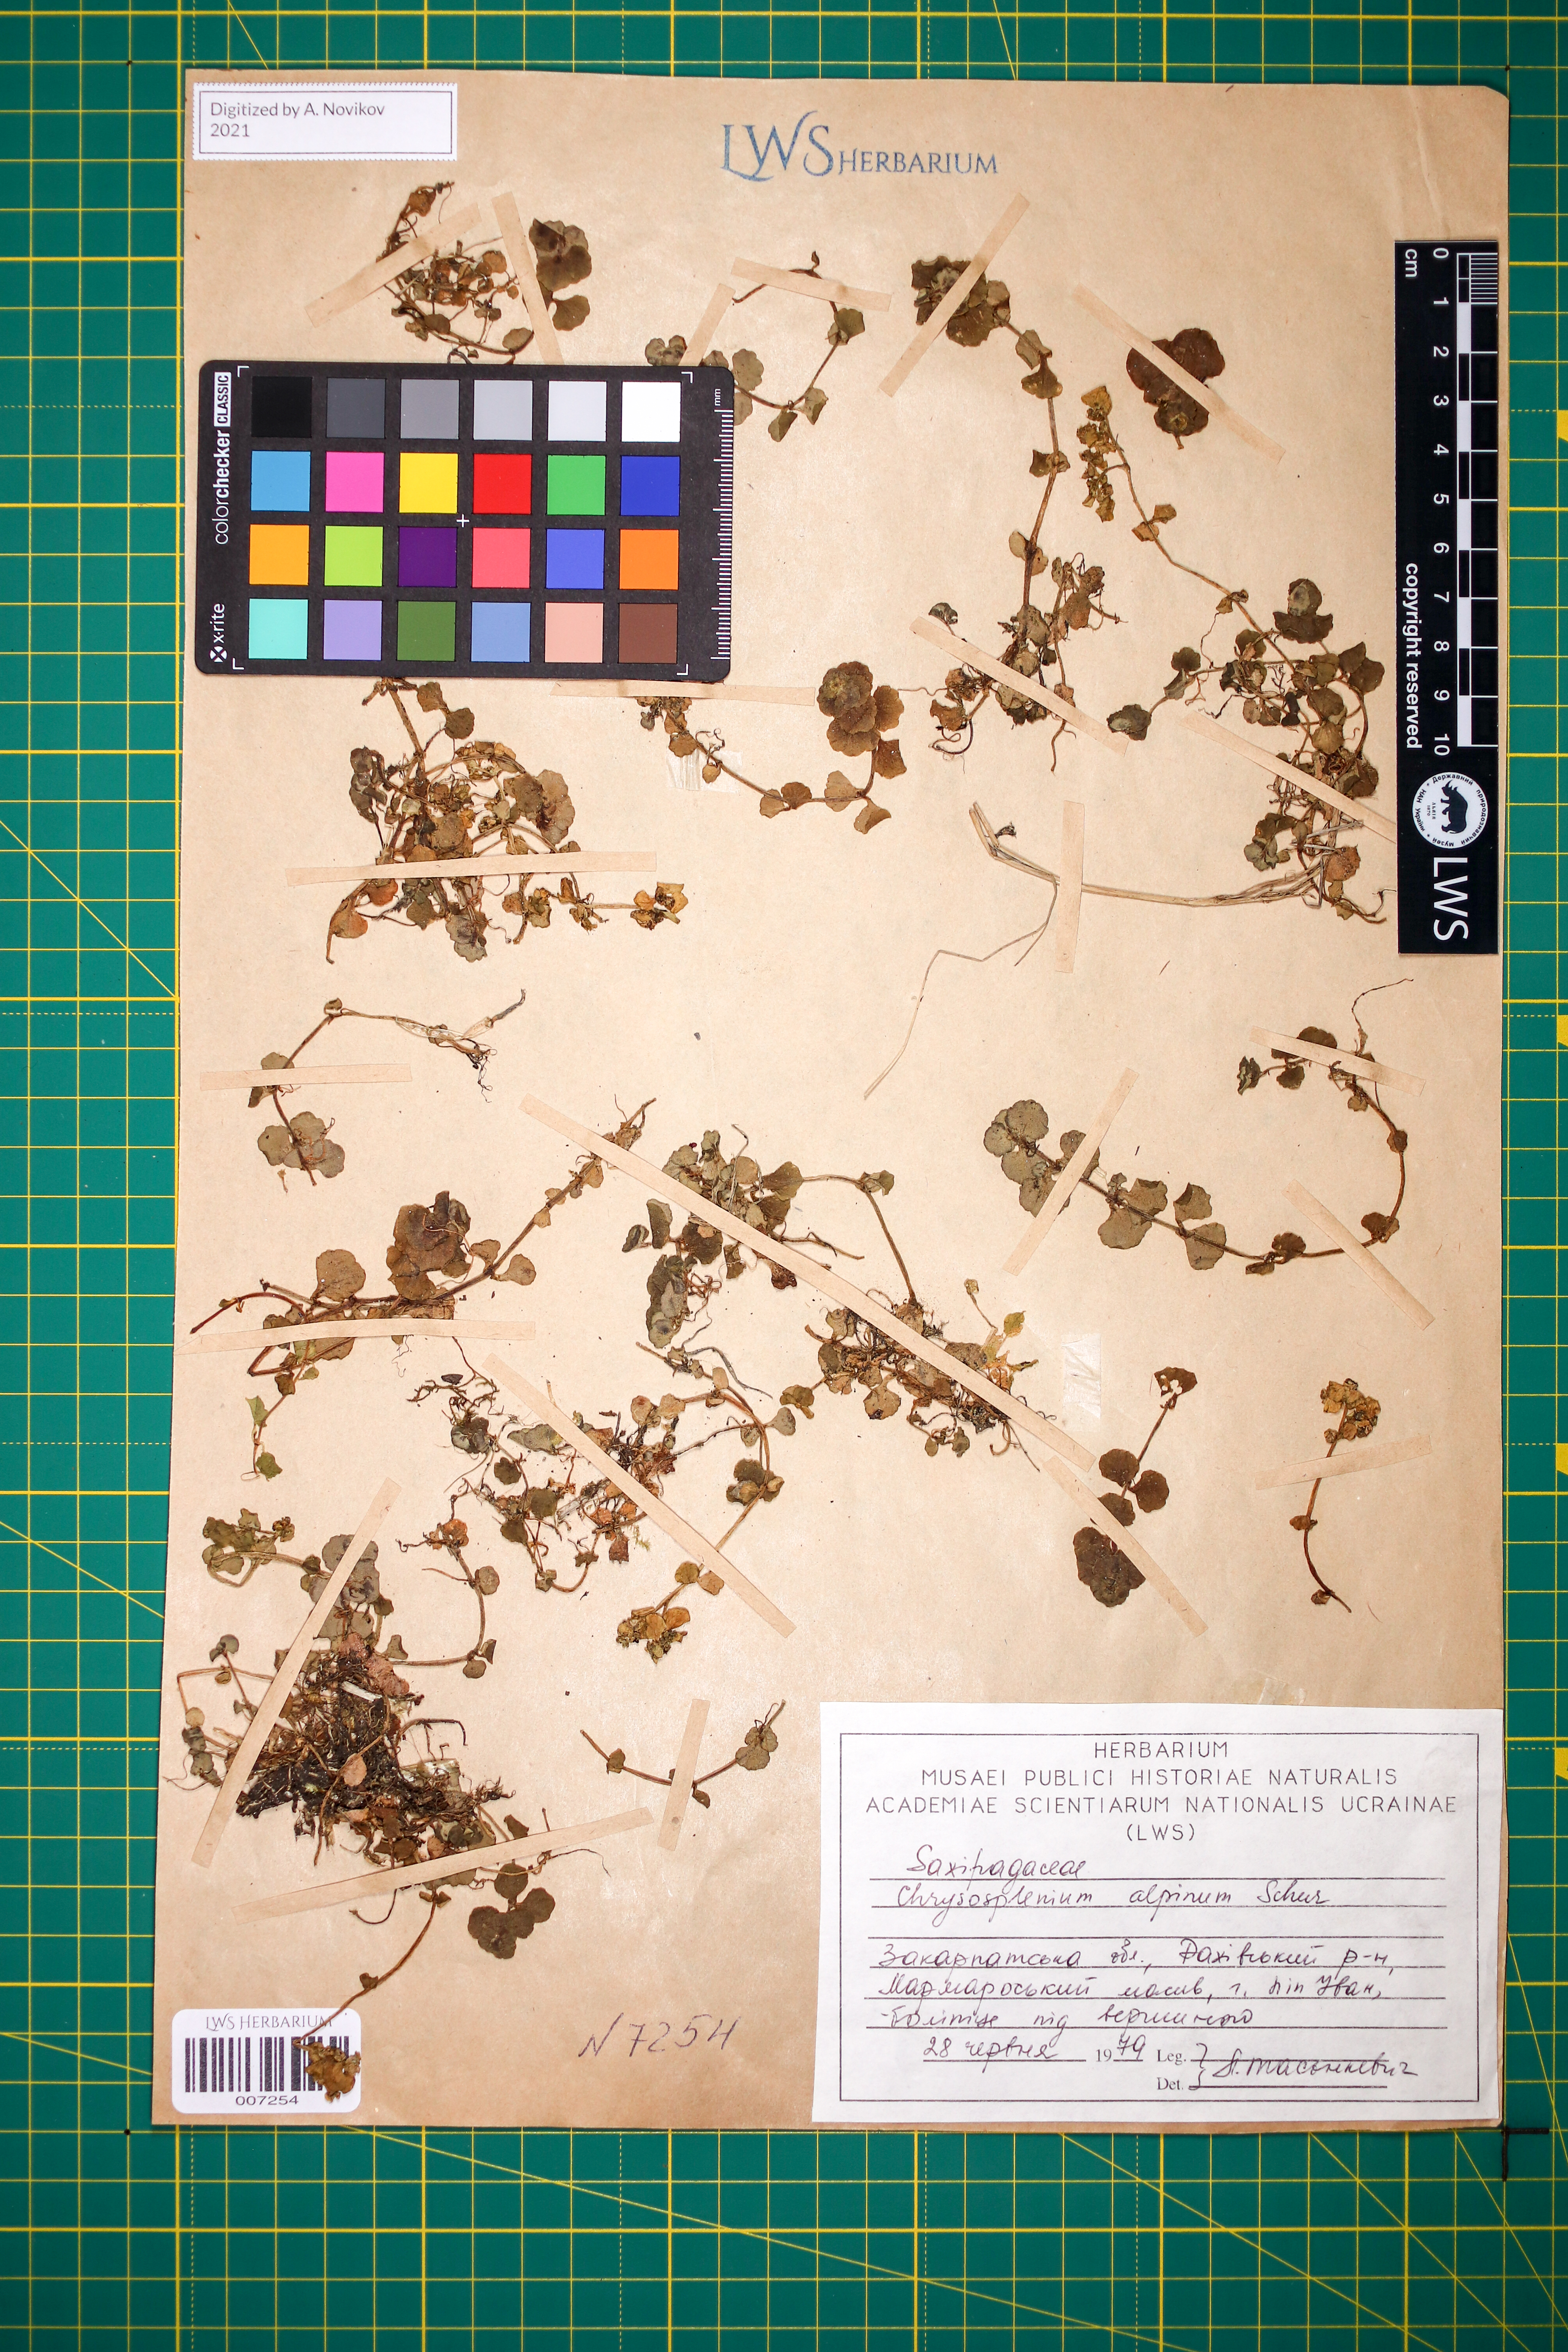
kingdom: Plantae
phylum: Tracheophyta
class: Magnoliopsida
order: Saxifragales
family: Saxifragaceae
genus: Chrysosplenium
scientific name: Chrysosplenium alpinum
